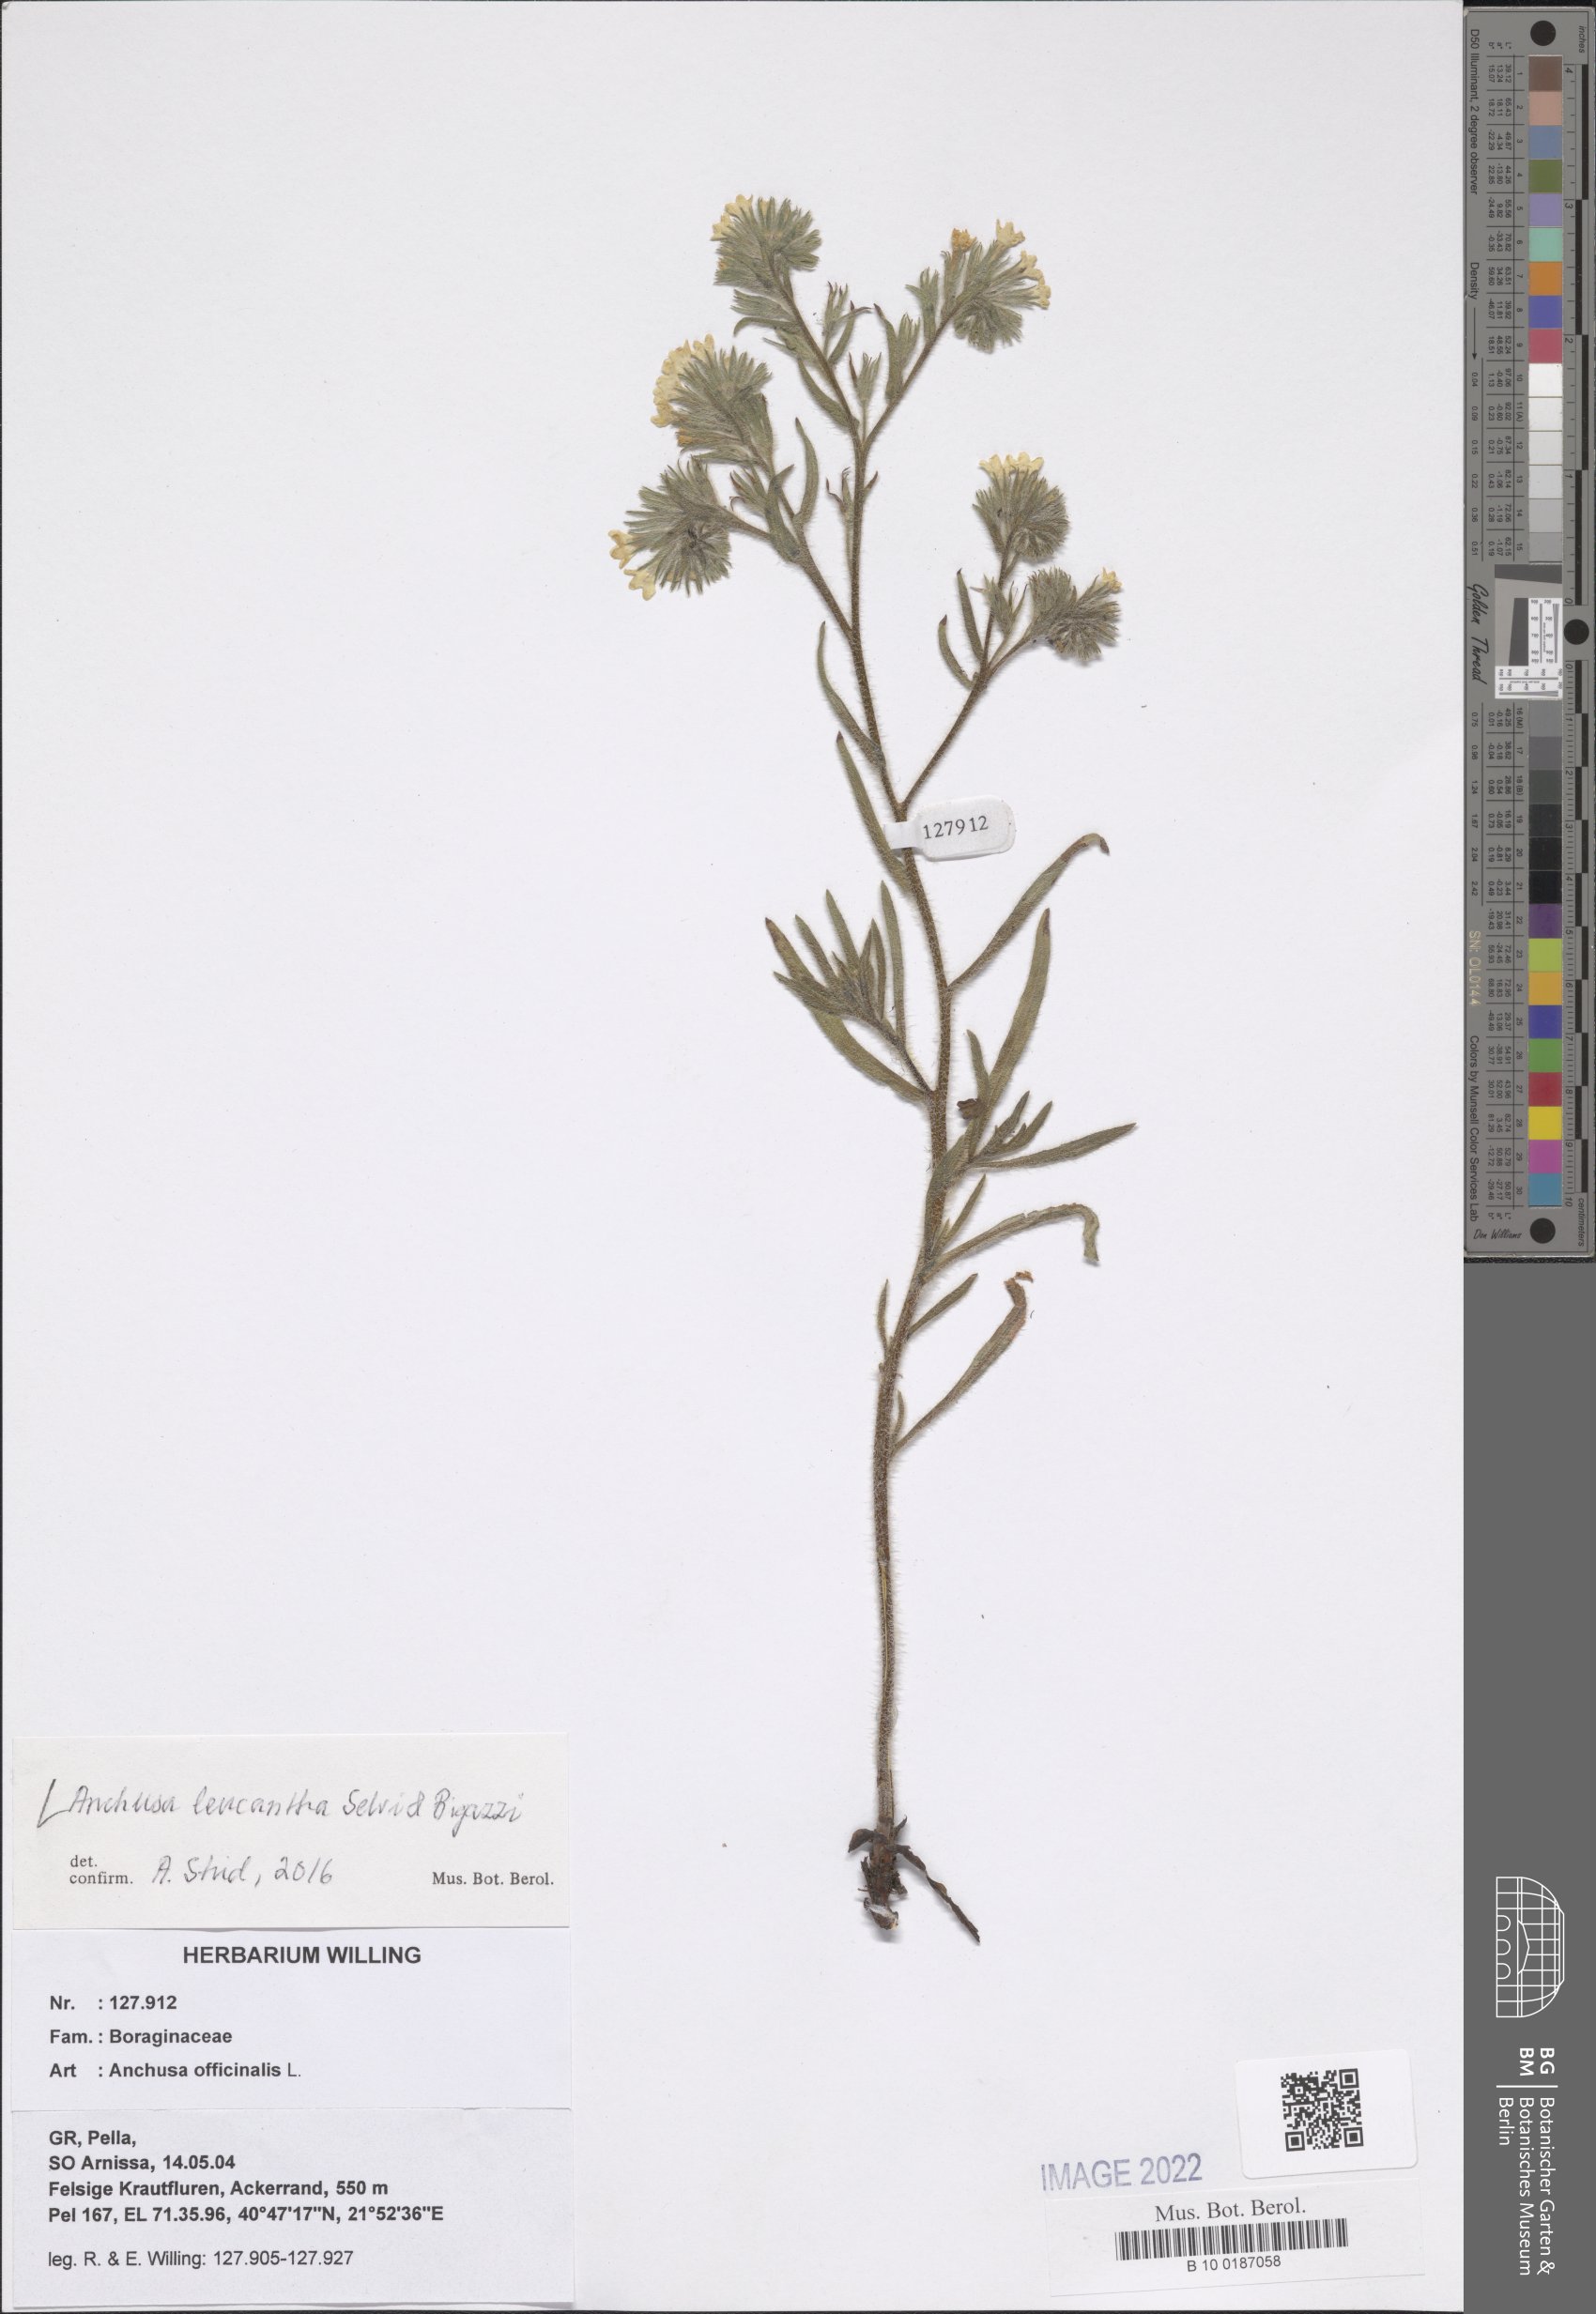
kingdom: Plantae
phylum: Tracheophyta
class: Magnoliopsida
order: Boraginales
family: Boraginaceae
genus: Anchusa
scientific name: Anchusa officinalis
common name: Alkanet
